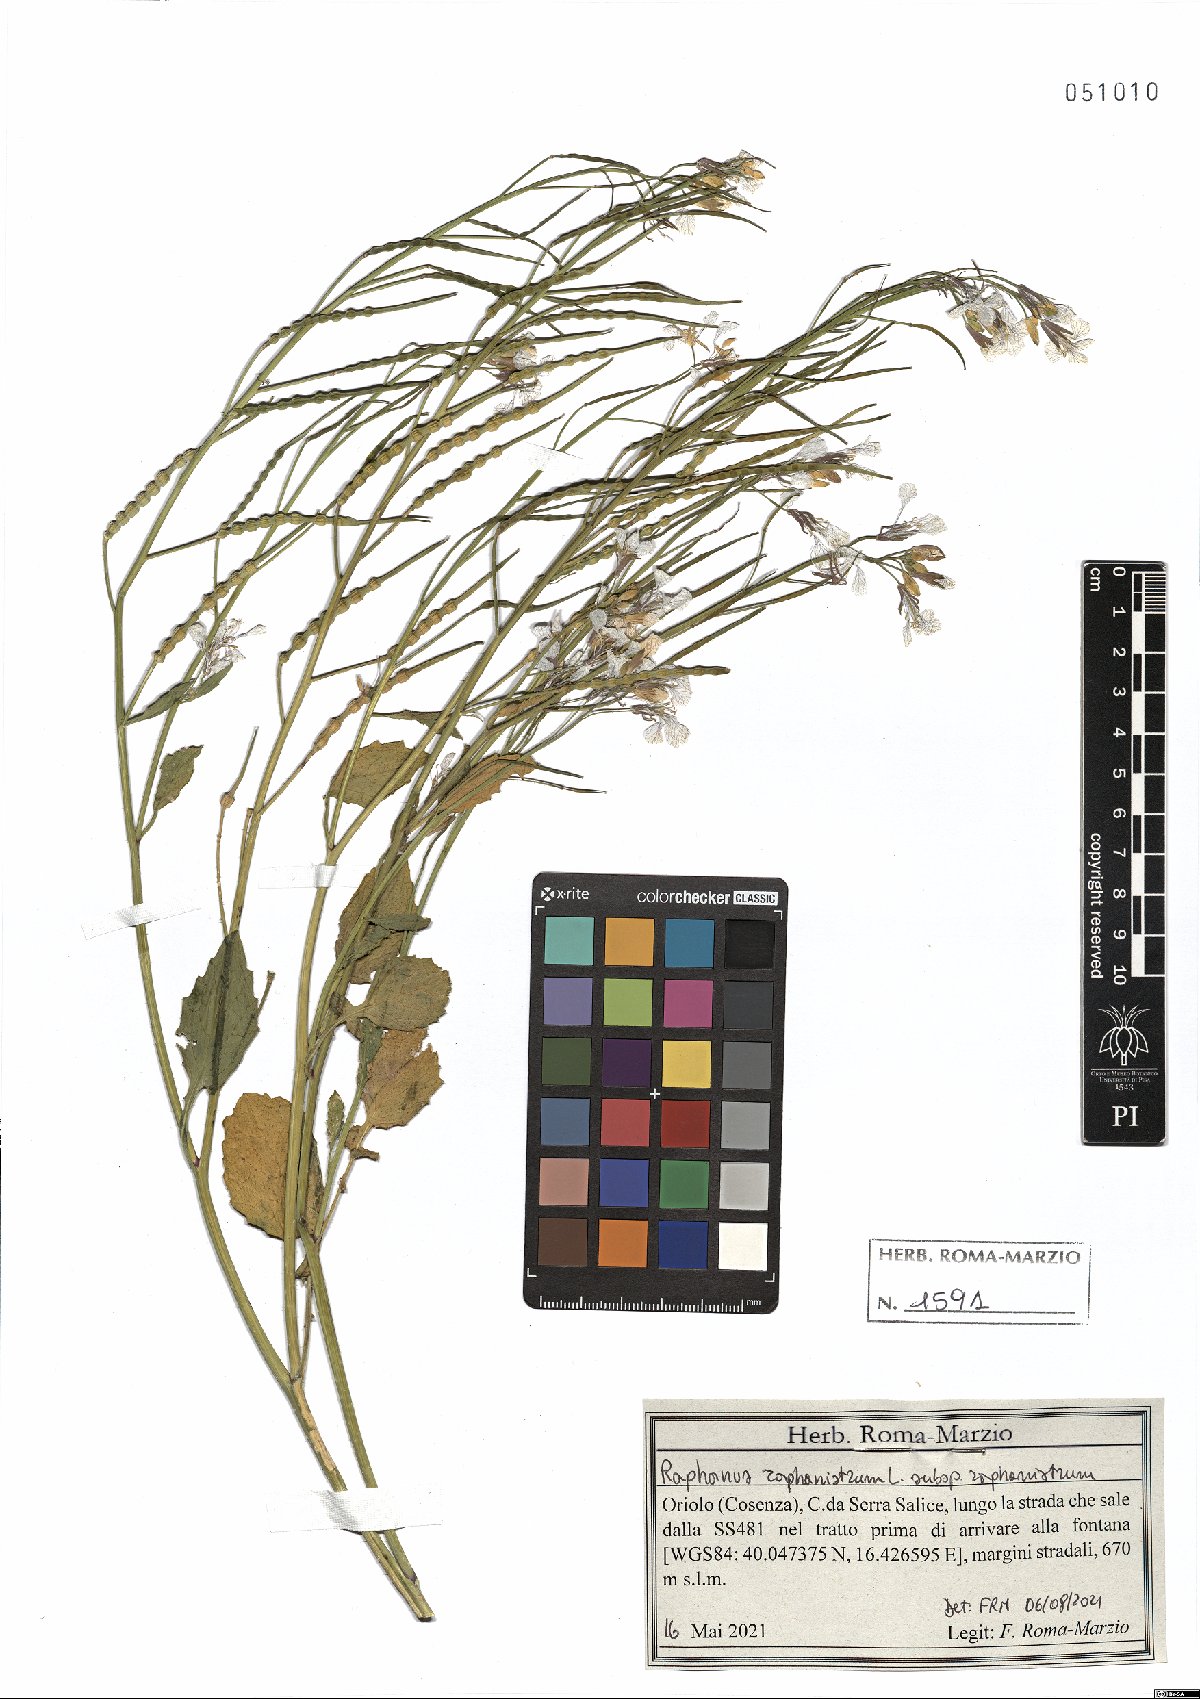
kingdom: Plantae
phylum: Tracheophyta
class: Magnoliopsida
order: Brassicales
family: Brassicaceae
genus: Raphanus
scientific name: Raphanus raphanistrum
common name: Wild radish
